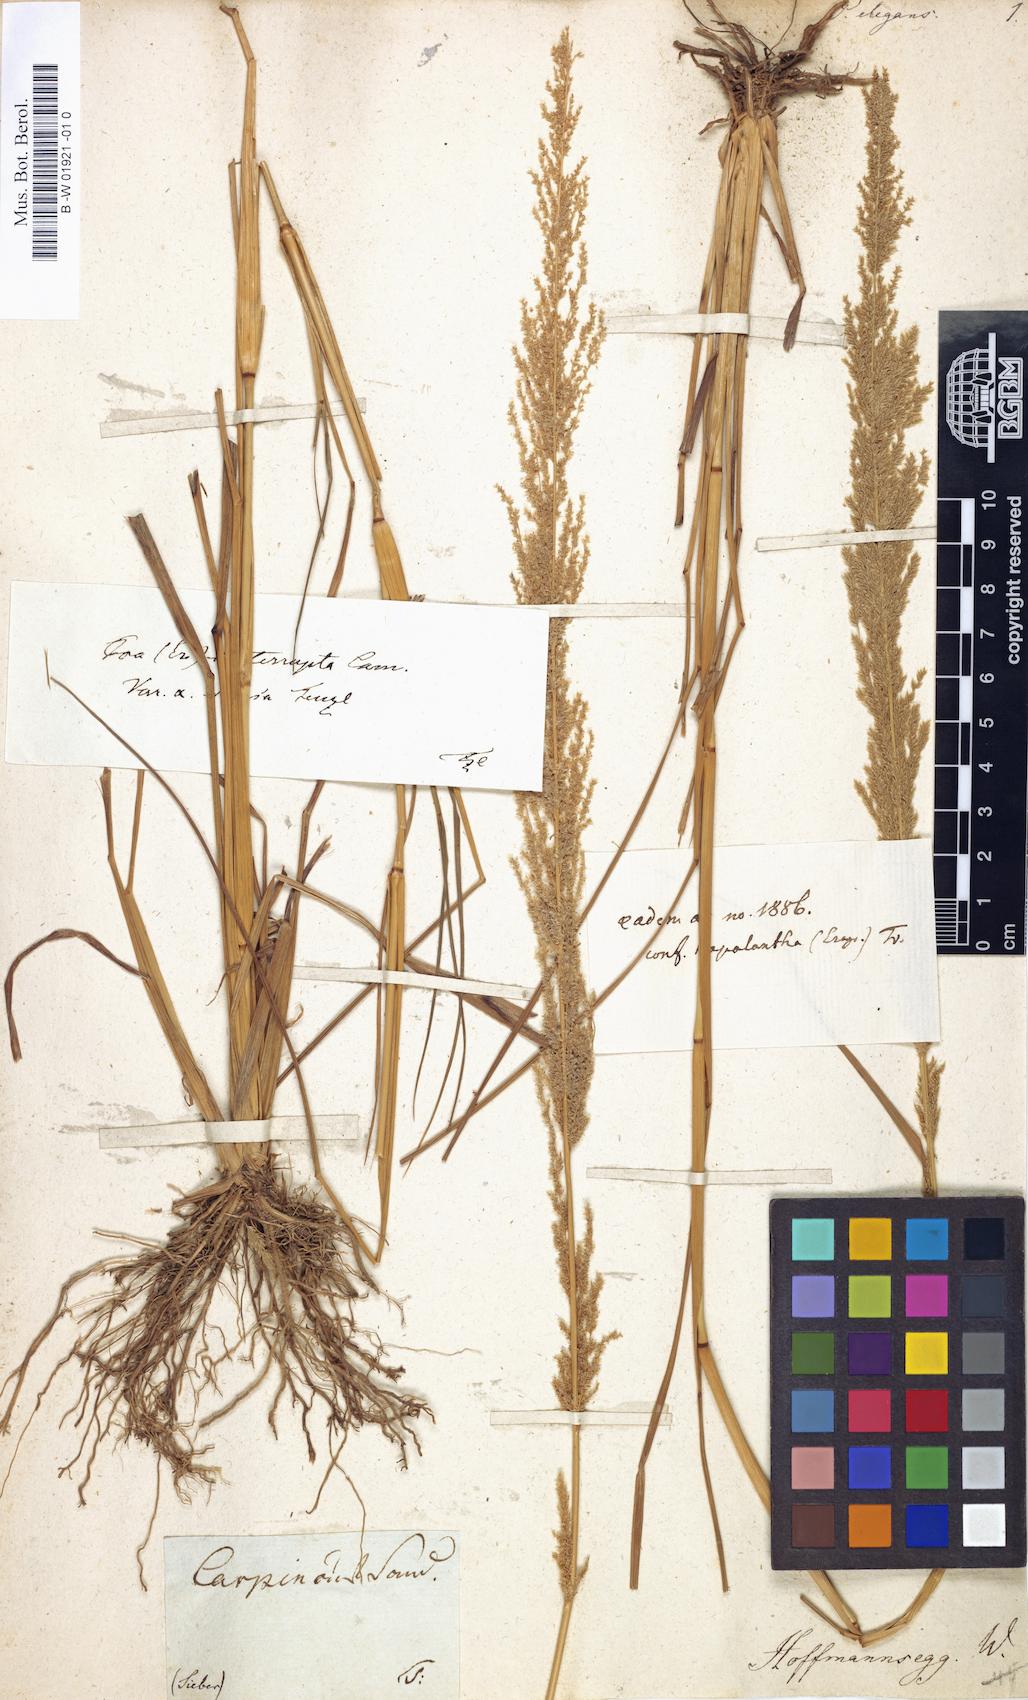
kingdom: Plantae
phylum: Tracheophyta
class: Liliopsida
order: Poales
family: Poaceae
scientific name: Poaceae
